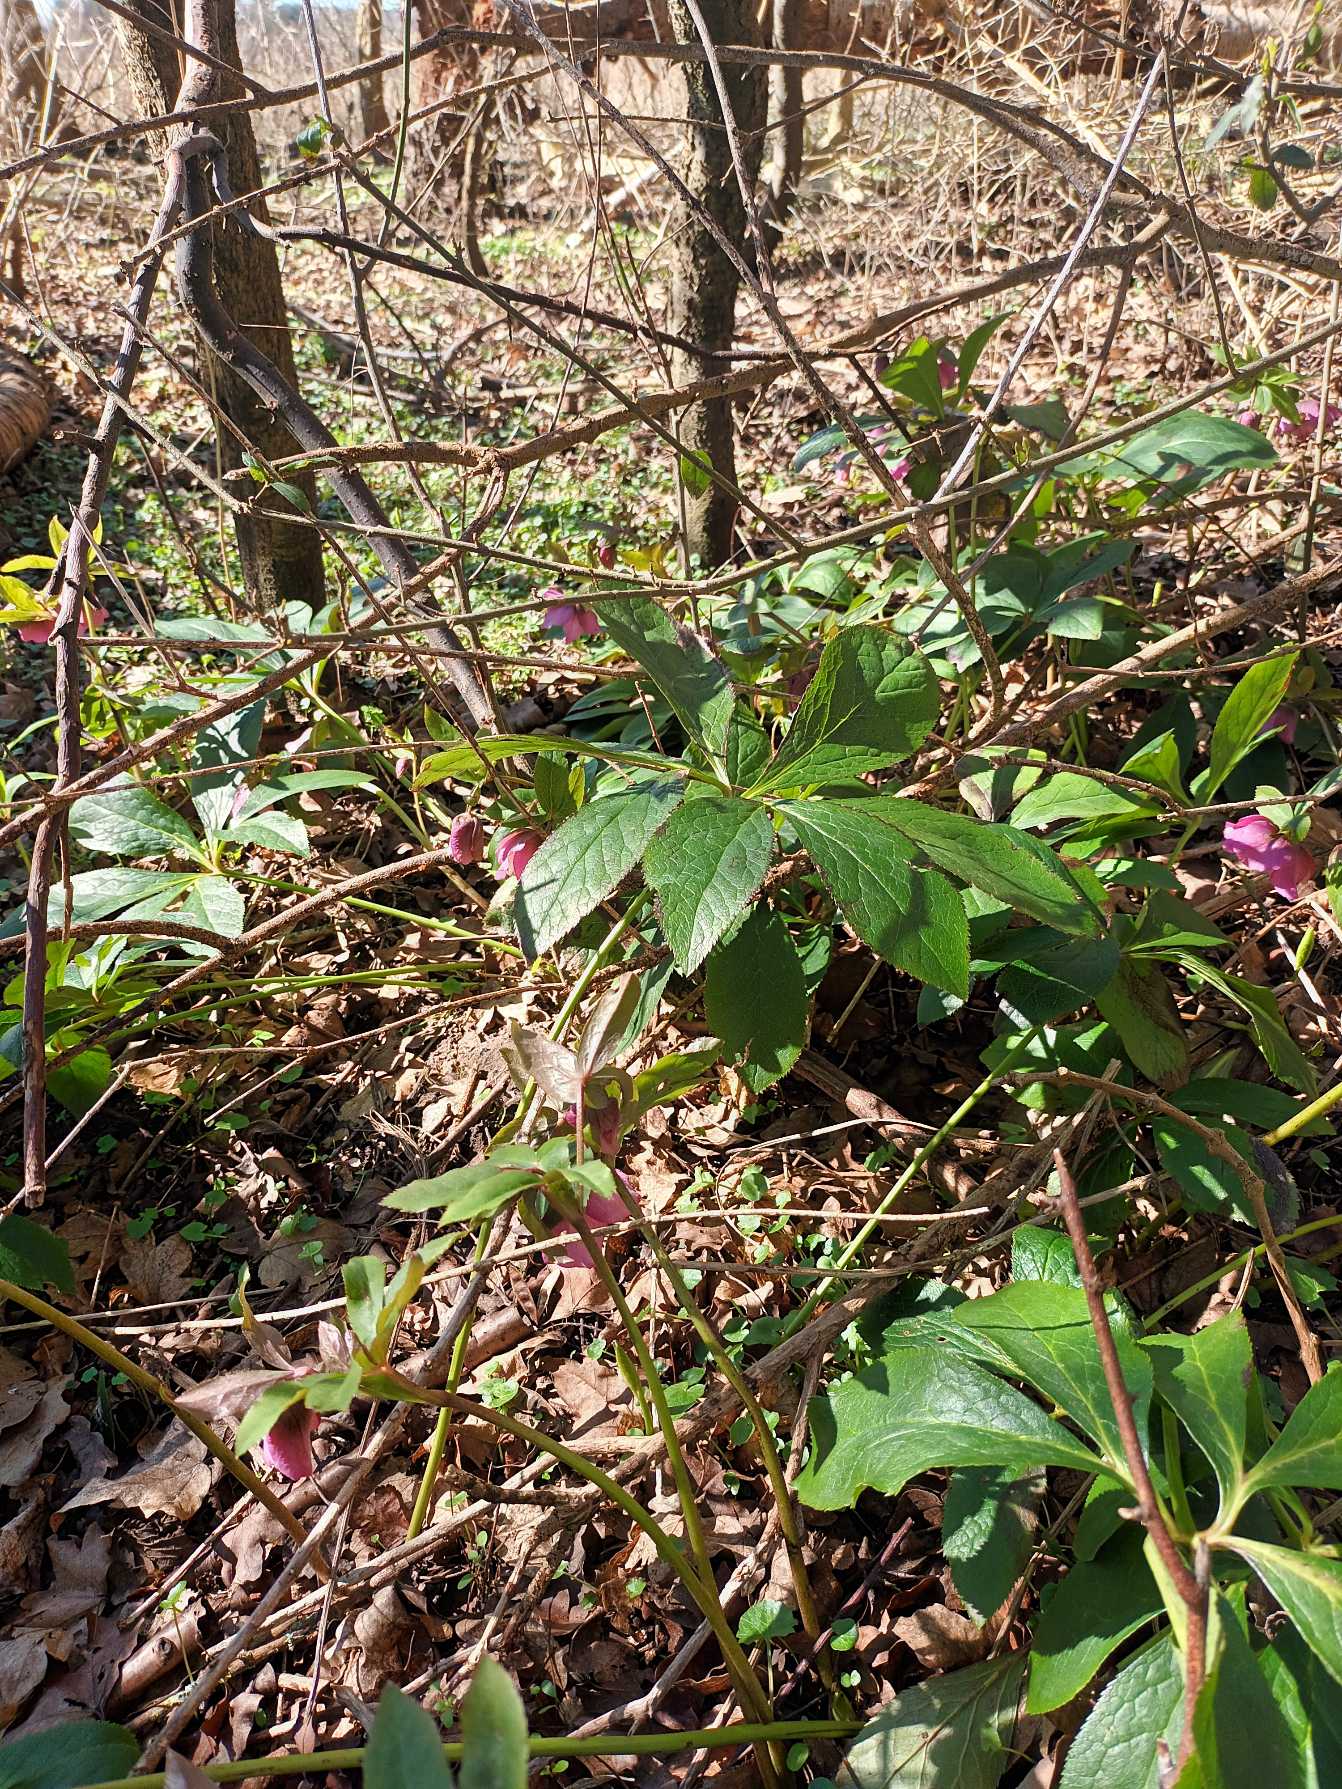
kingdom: Plantae
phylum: Tracheophyta
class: Magnoliopsida
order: Ranunculales
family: Ranunculaceae
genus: Helleborus
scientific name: Helleborus orientalis
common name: Rød julerose
